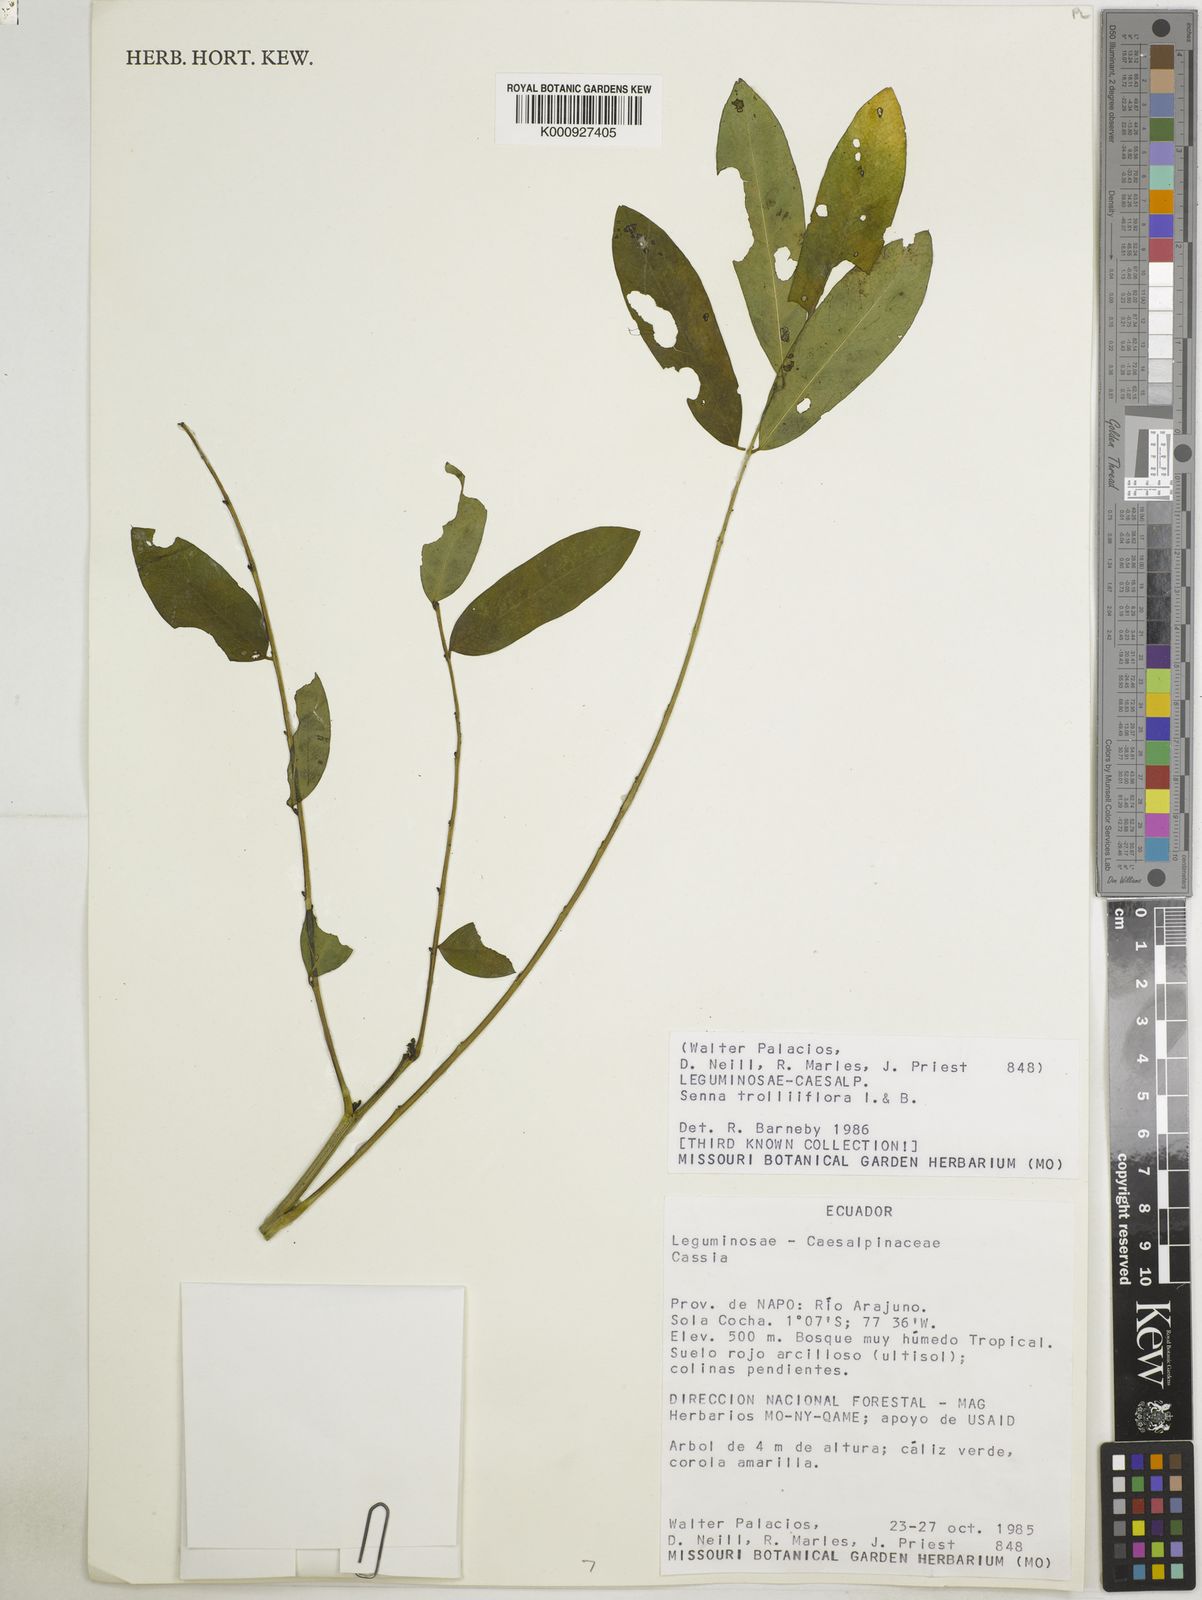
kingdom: Plantae
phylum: Tracheophyta
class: Magnoliopsida
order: Fabales
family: Fabaceae
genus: Senna
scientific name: Senna trolliiflora
